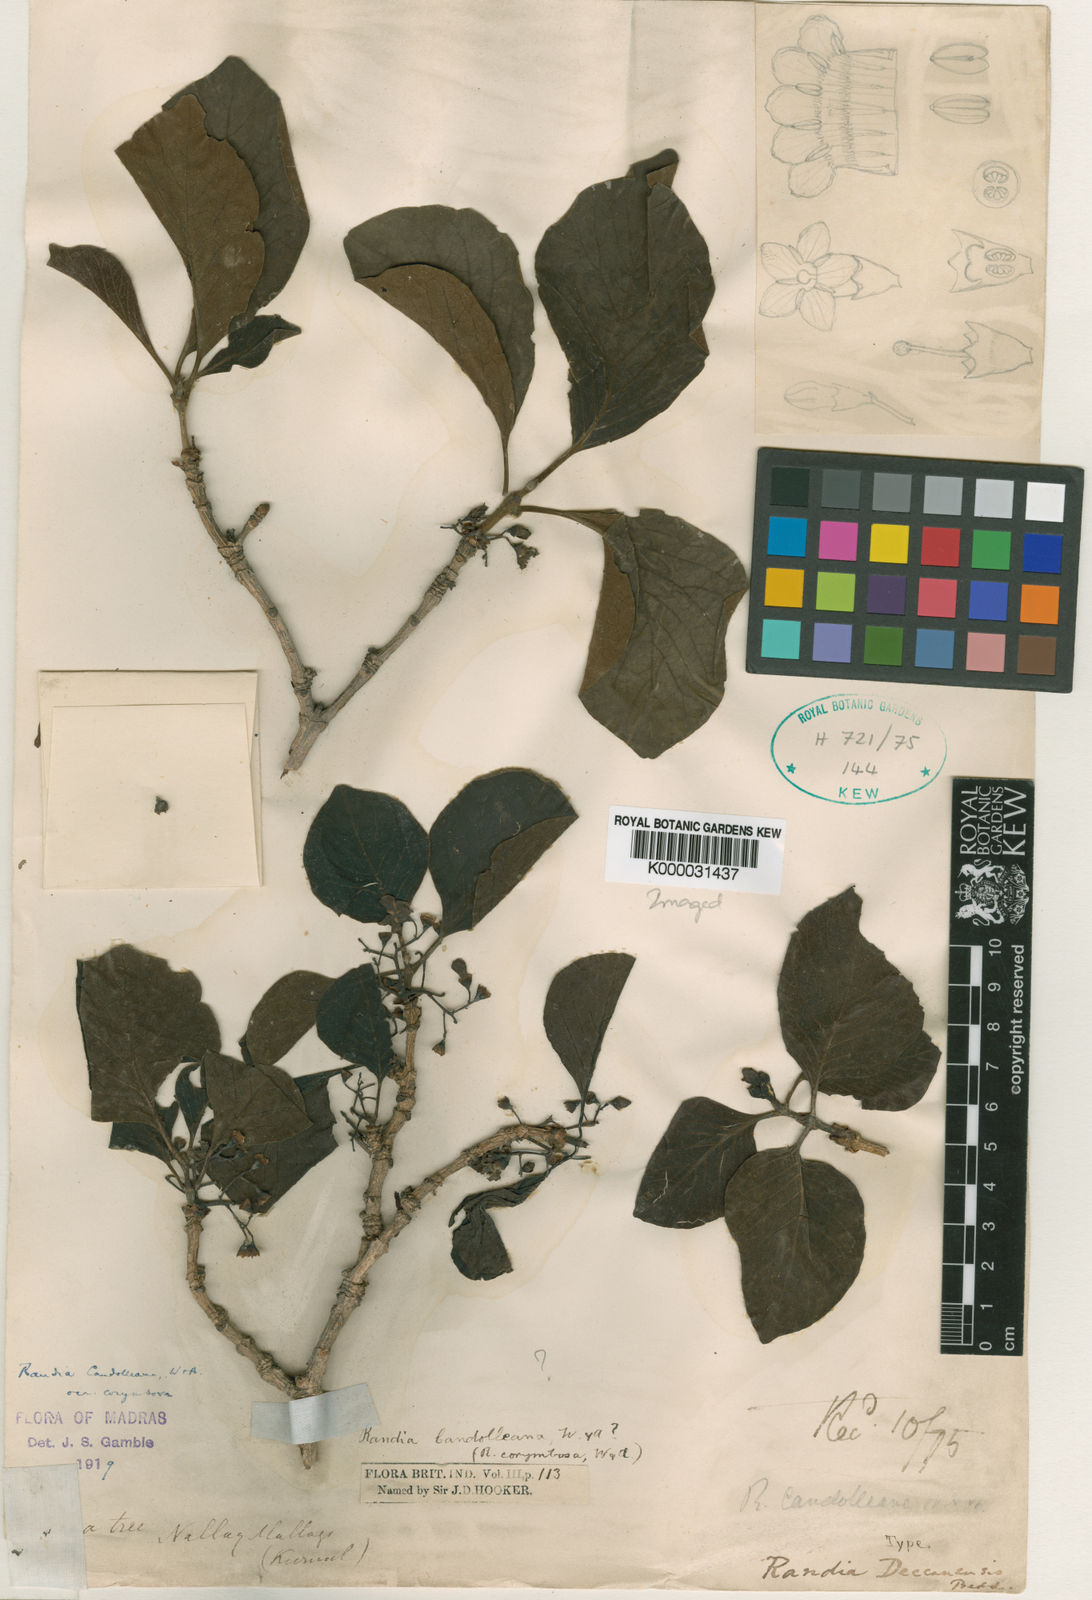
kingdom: Plantae
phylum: Tracheophyta
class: Magnoliopsida
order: Gentianales
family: Rubiaceae
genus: Deccania
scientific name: Deccania
